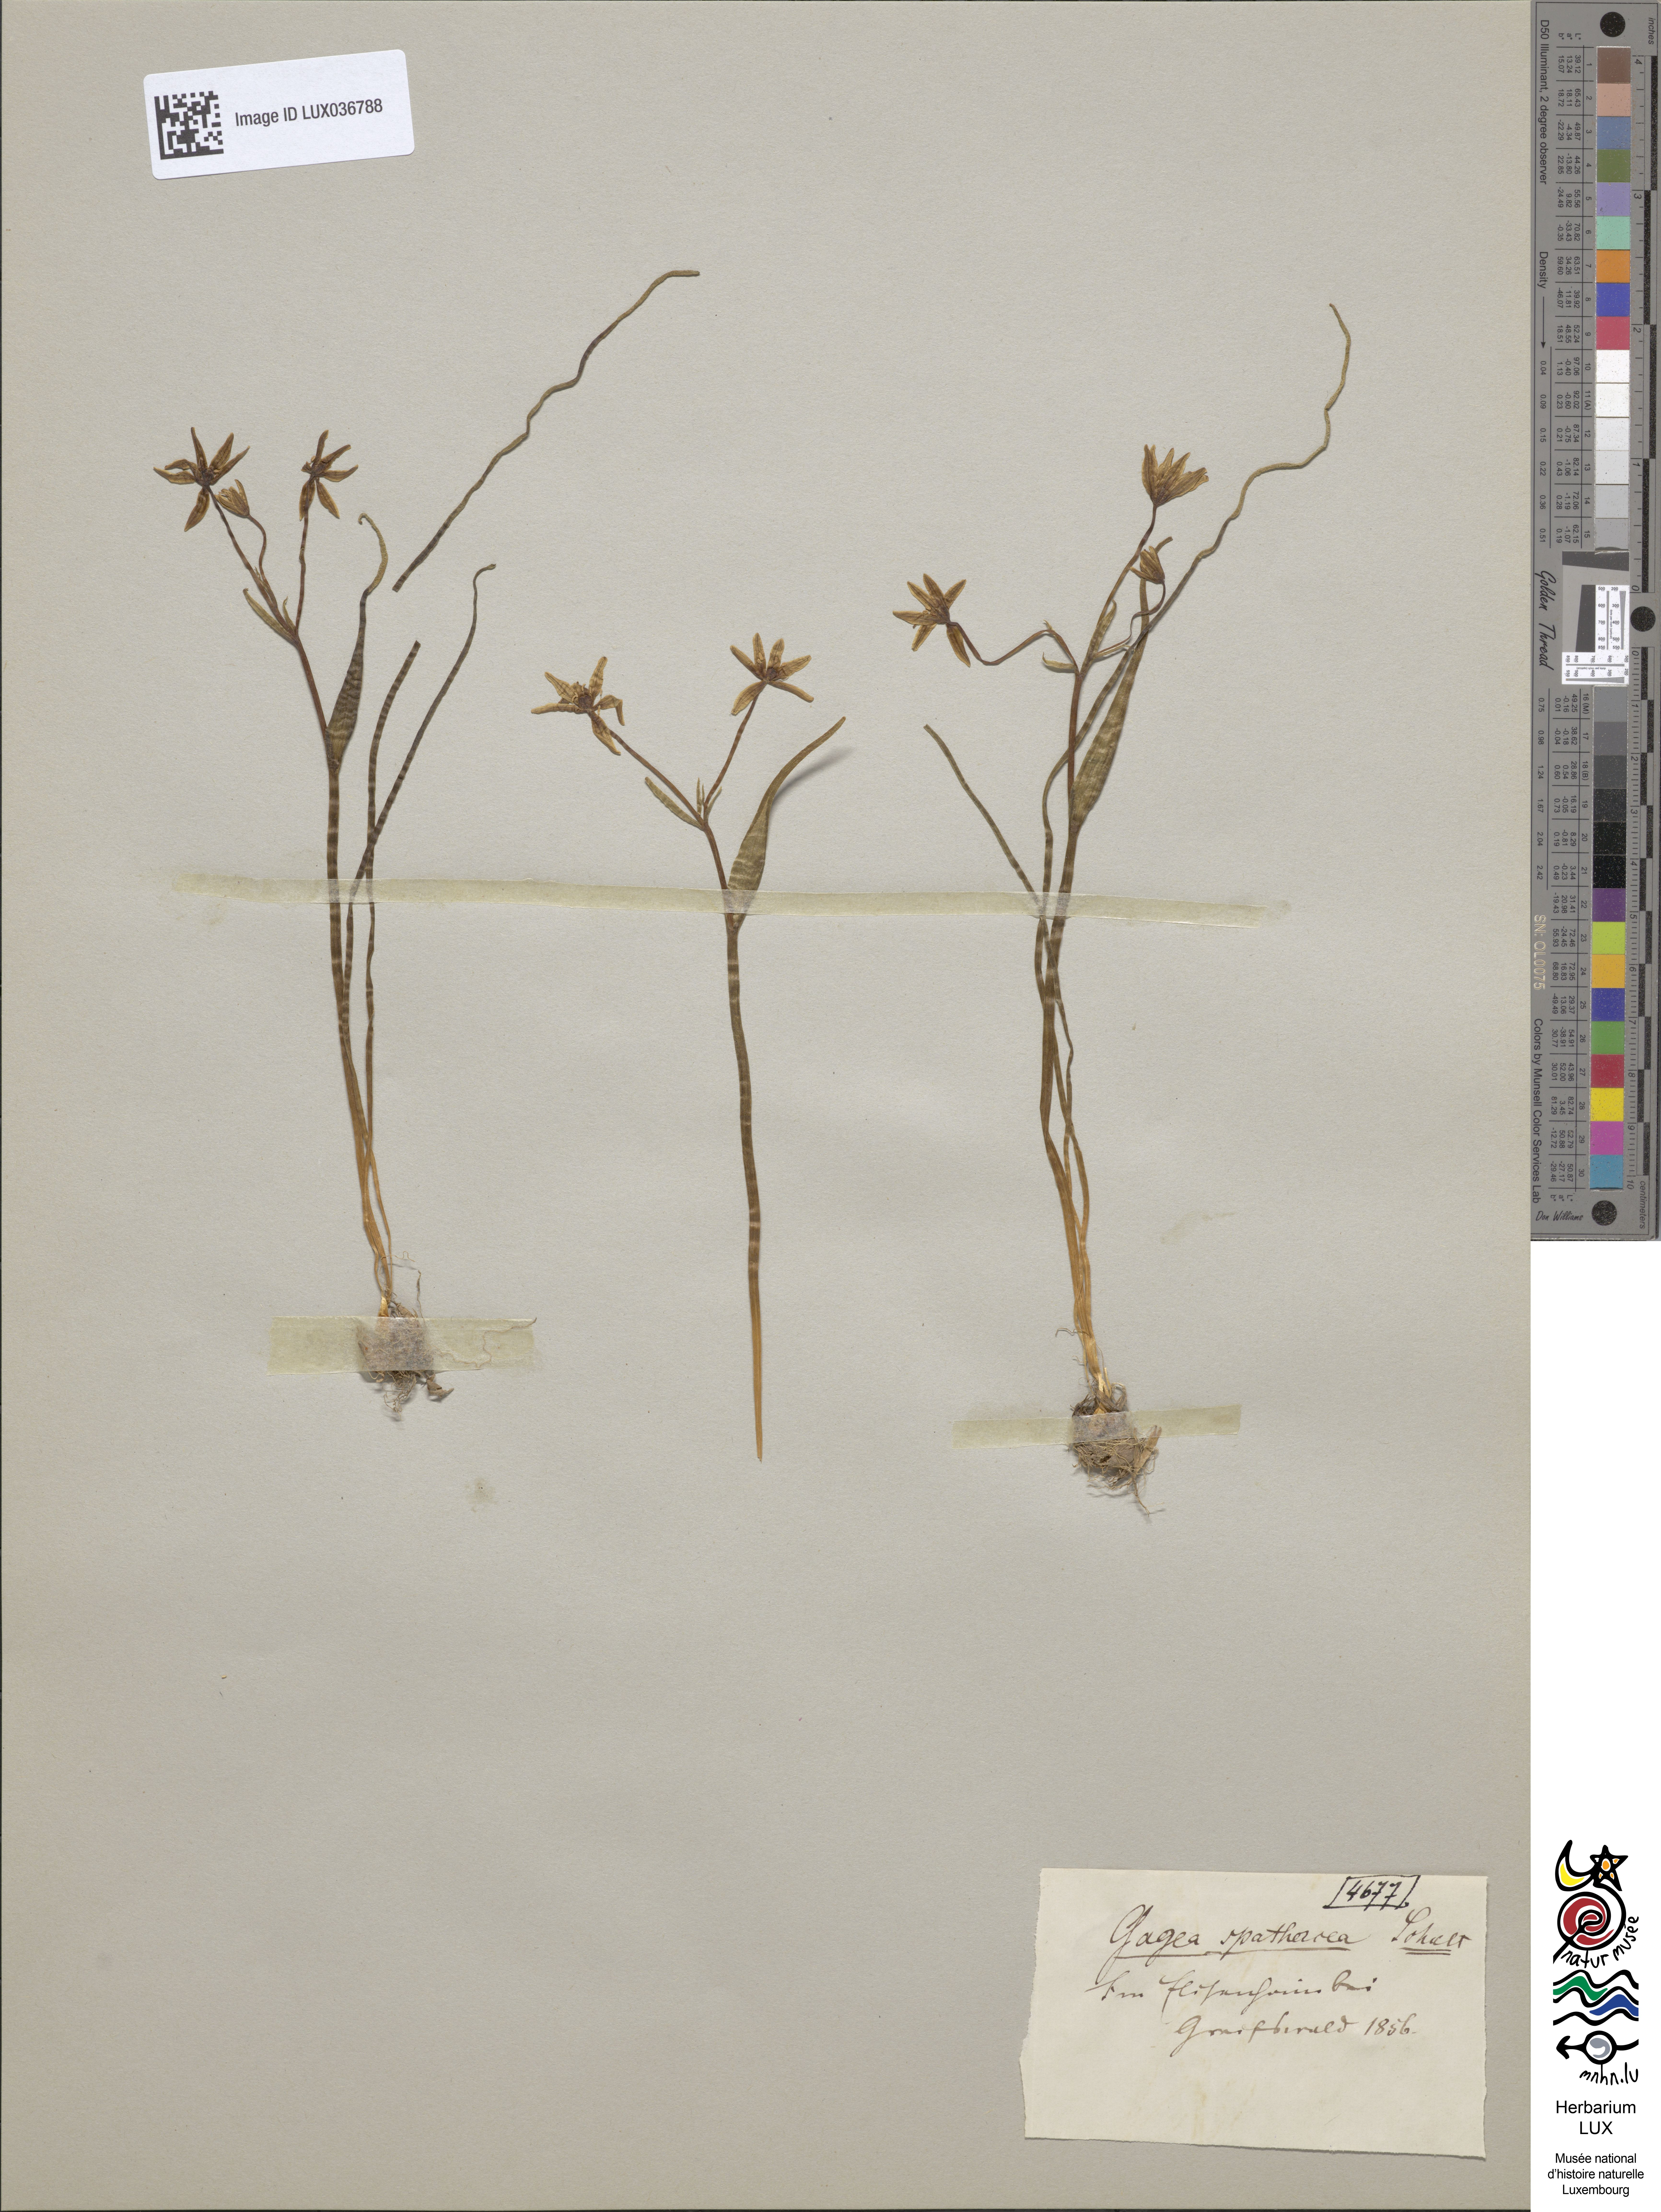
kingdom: Plantae
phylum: Tracheophyta
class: Liliopsida
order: Liliales
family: Liliaceae
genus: Gagea
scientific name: Gagea spathacea
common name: Belgian gagea
